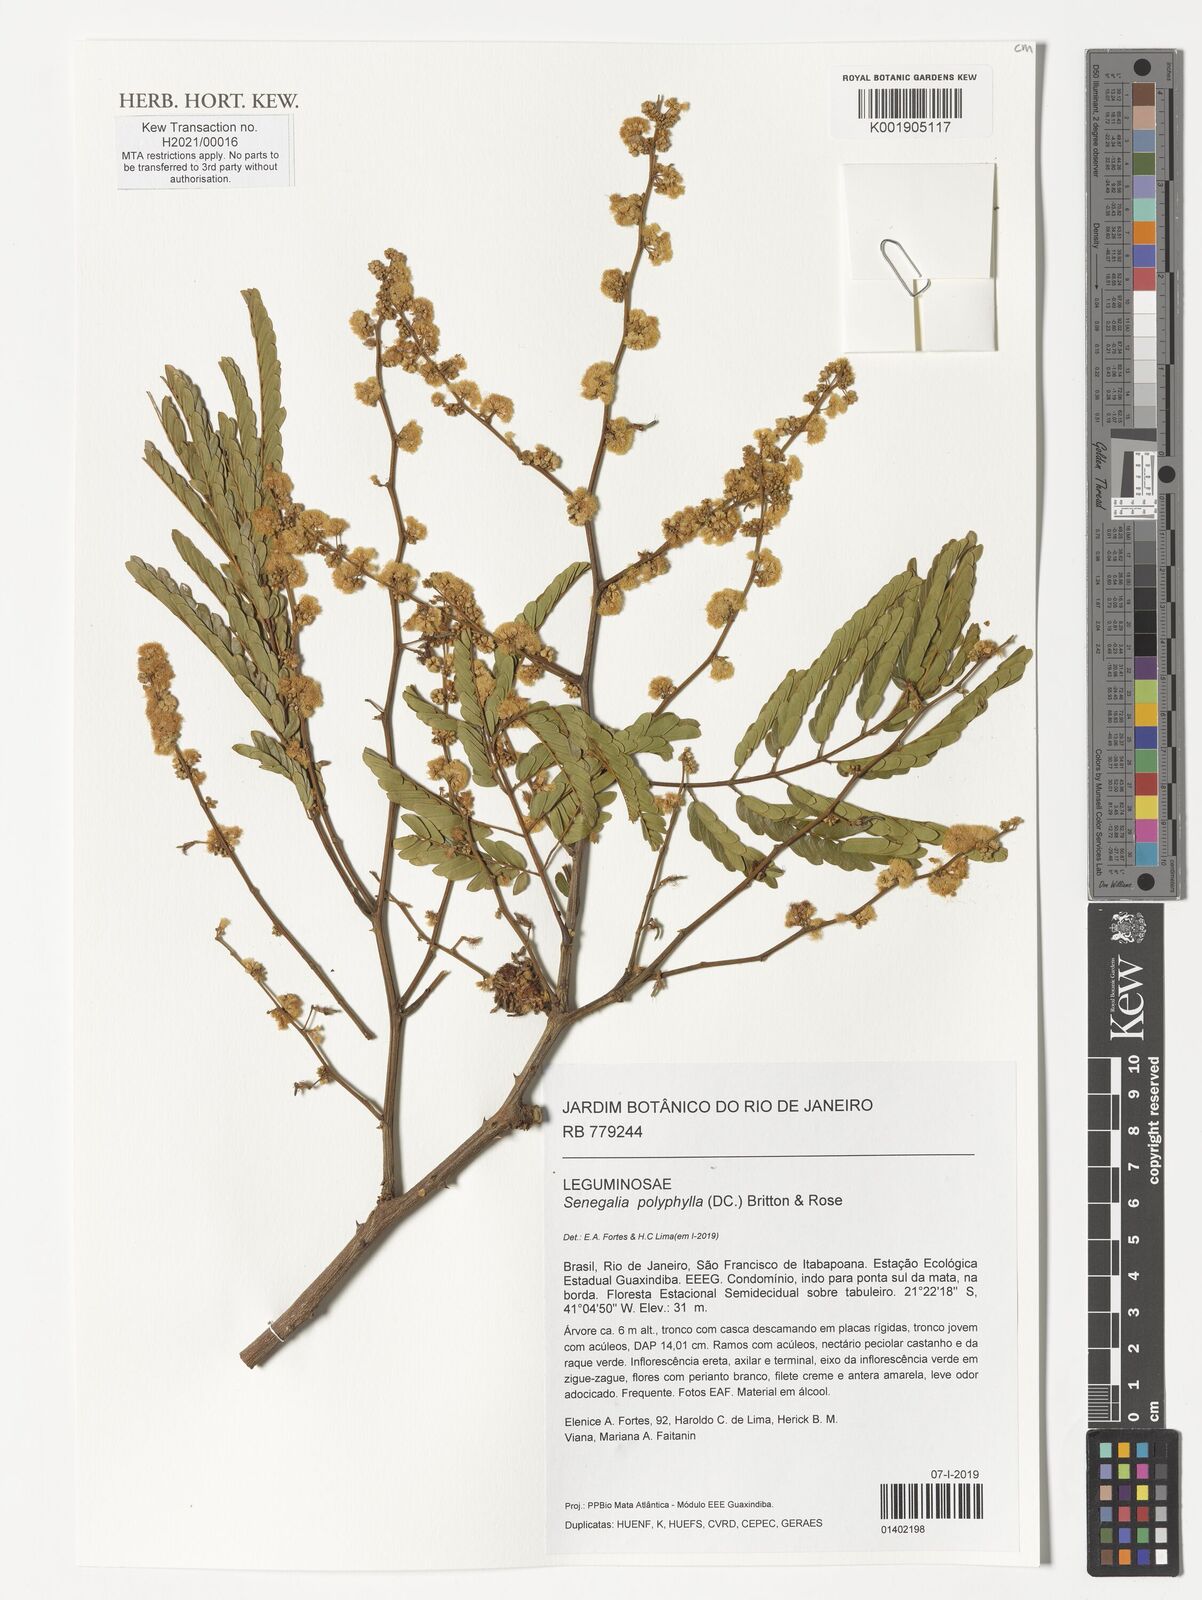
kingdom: Plantae
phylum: Tracheophyta
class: Magnoliopsida
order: Fabales
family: Fabaceae
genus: Senegalia
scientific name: Senegalia polyphylla
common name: White-tamarind
